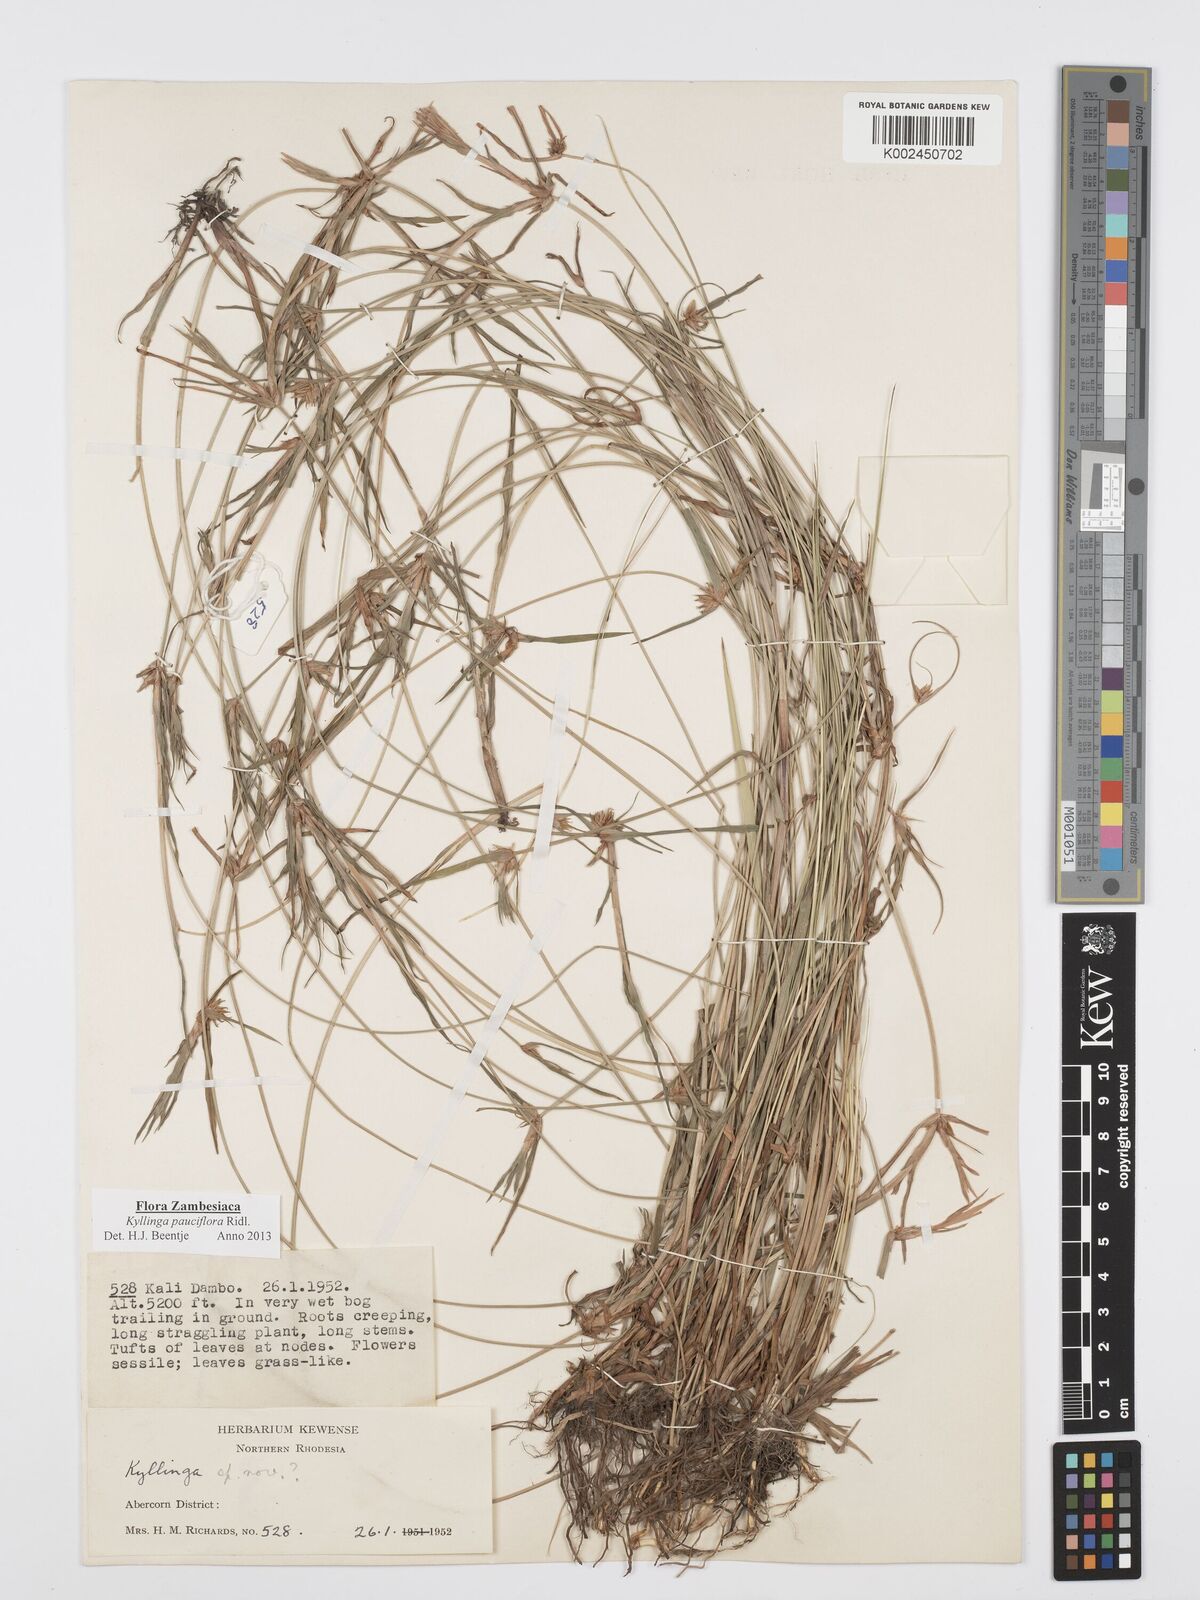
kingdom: Plantae
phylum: Tracheophyta
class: Liliopsida
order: Poales
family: Cyperaceae
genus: Cyperus
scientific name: Cyperus
